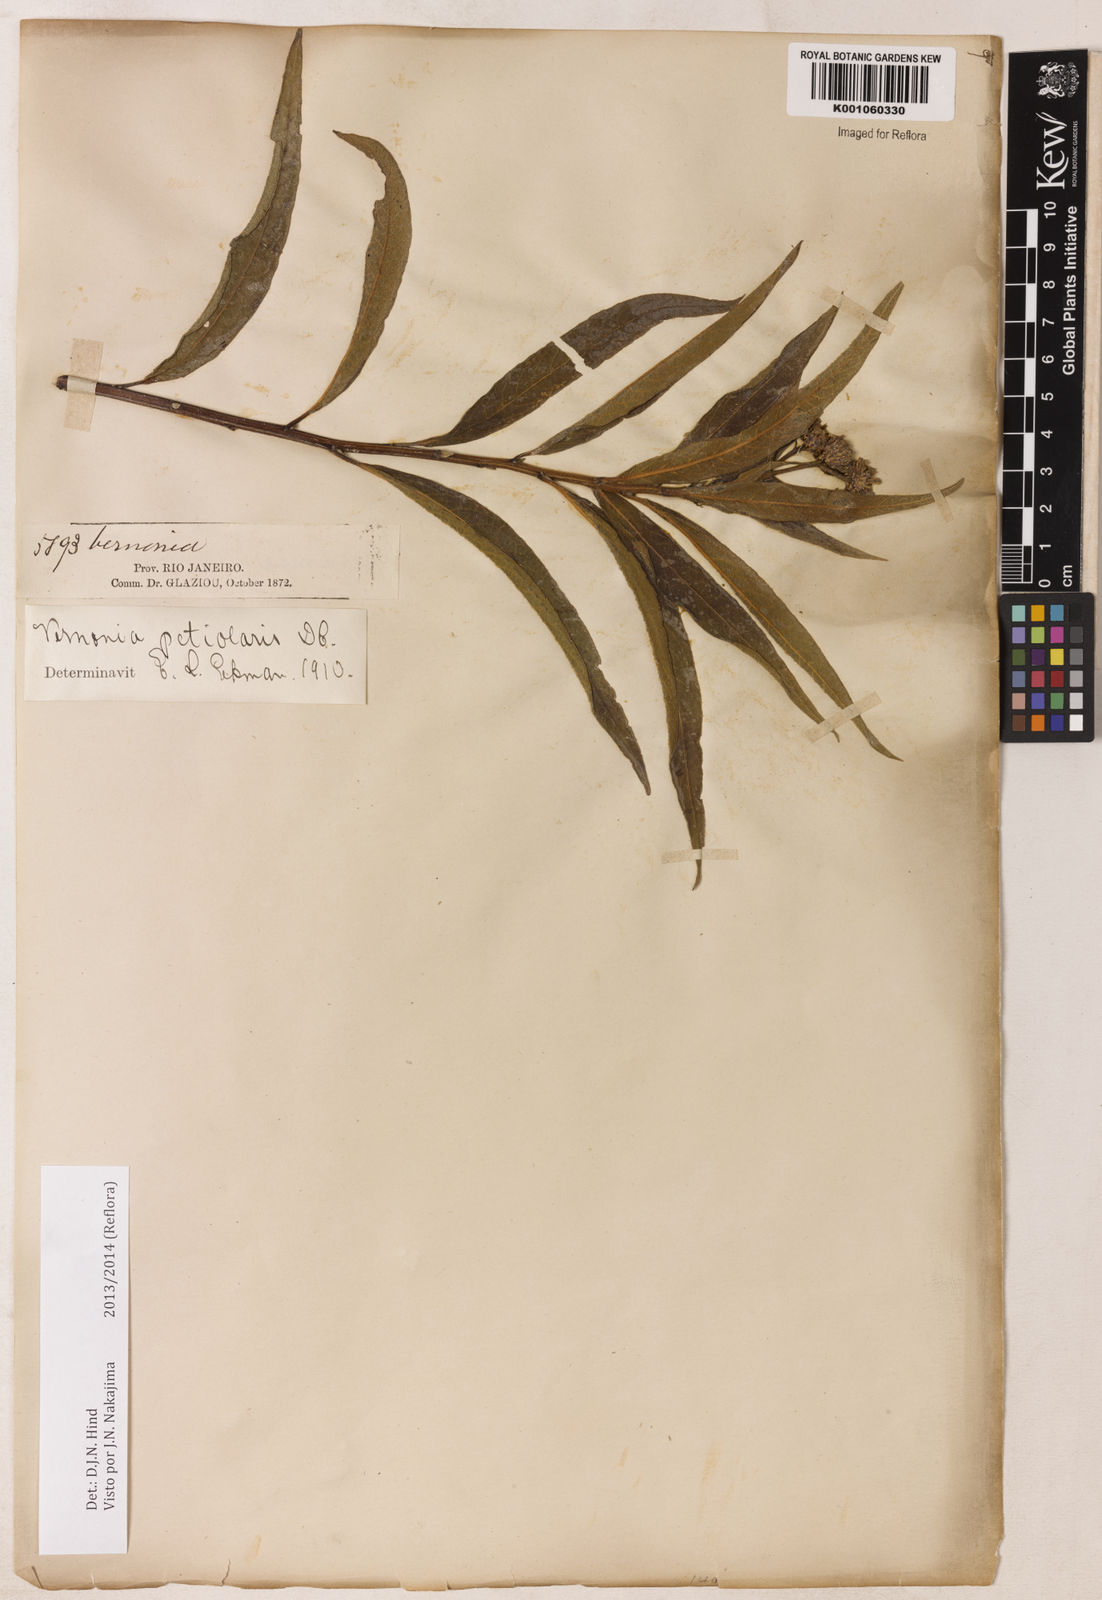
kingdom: Plantae
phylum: Tracheophyta
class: Magnoliopsida
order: Asterales
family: Asteraceae
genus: Vernonanthura
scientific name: Vernonanthura petiolaris
